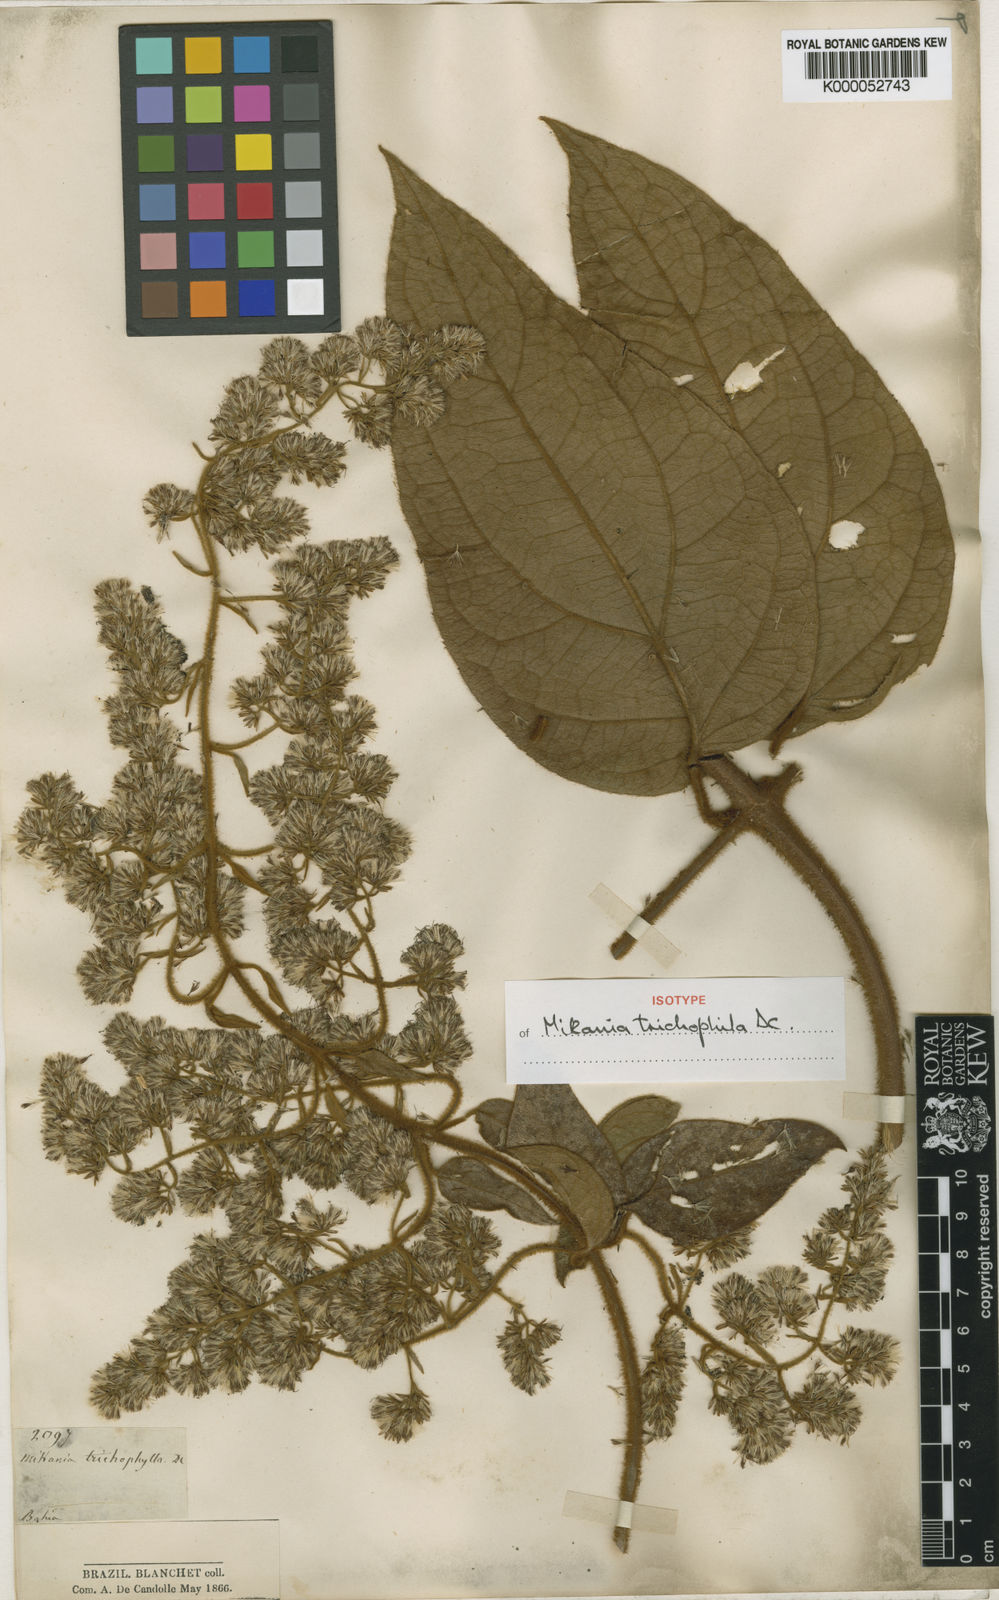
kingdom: Plantae
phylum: Tracheophyta
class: Magnoliopsida
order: Asterales
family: Asteraceae
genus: Mikania
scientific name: Mikania trichophila
